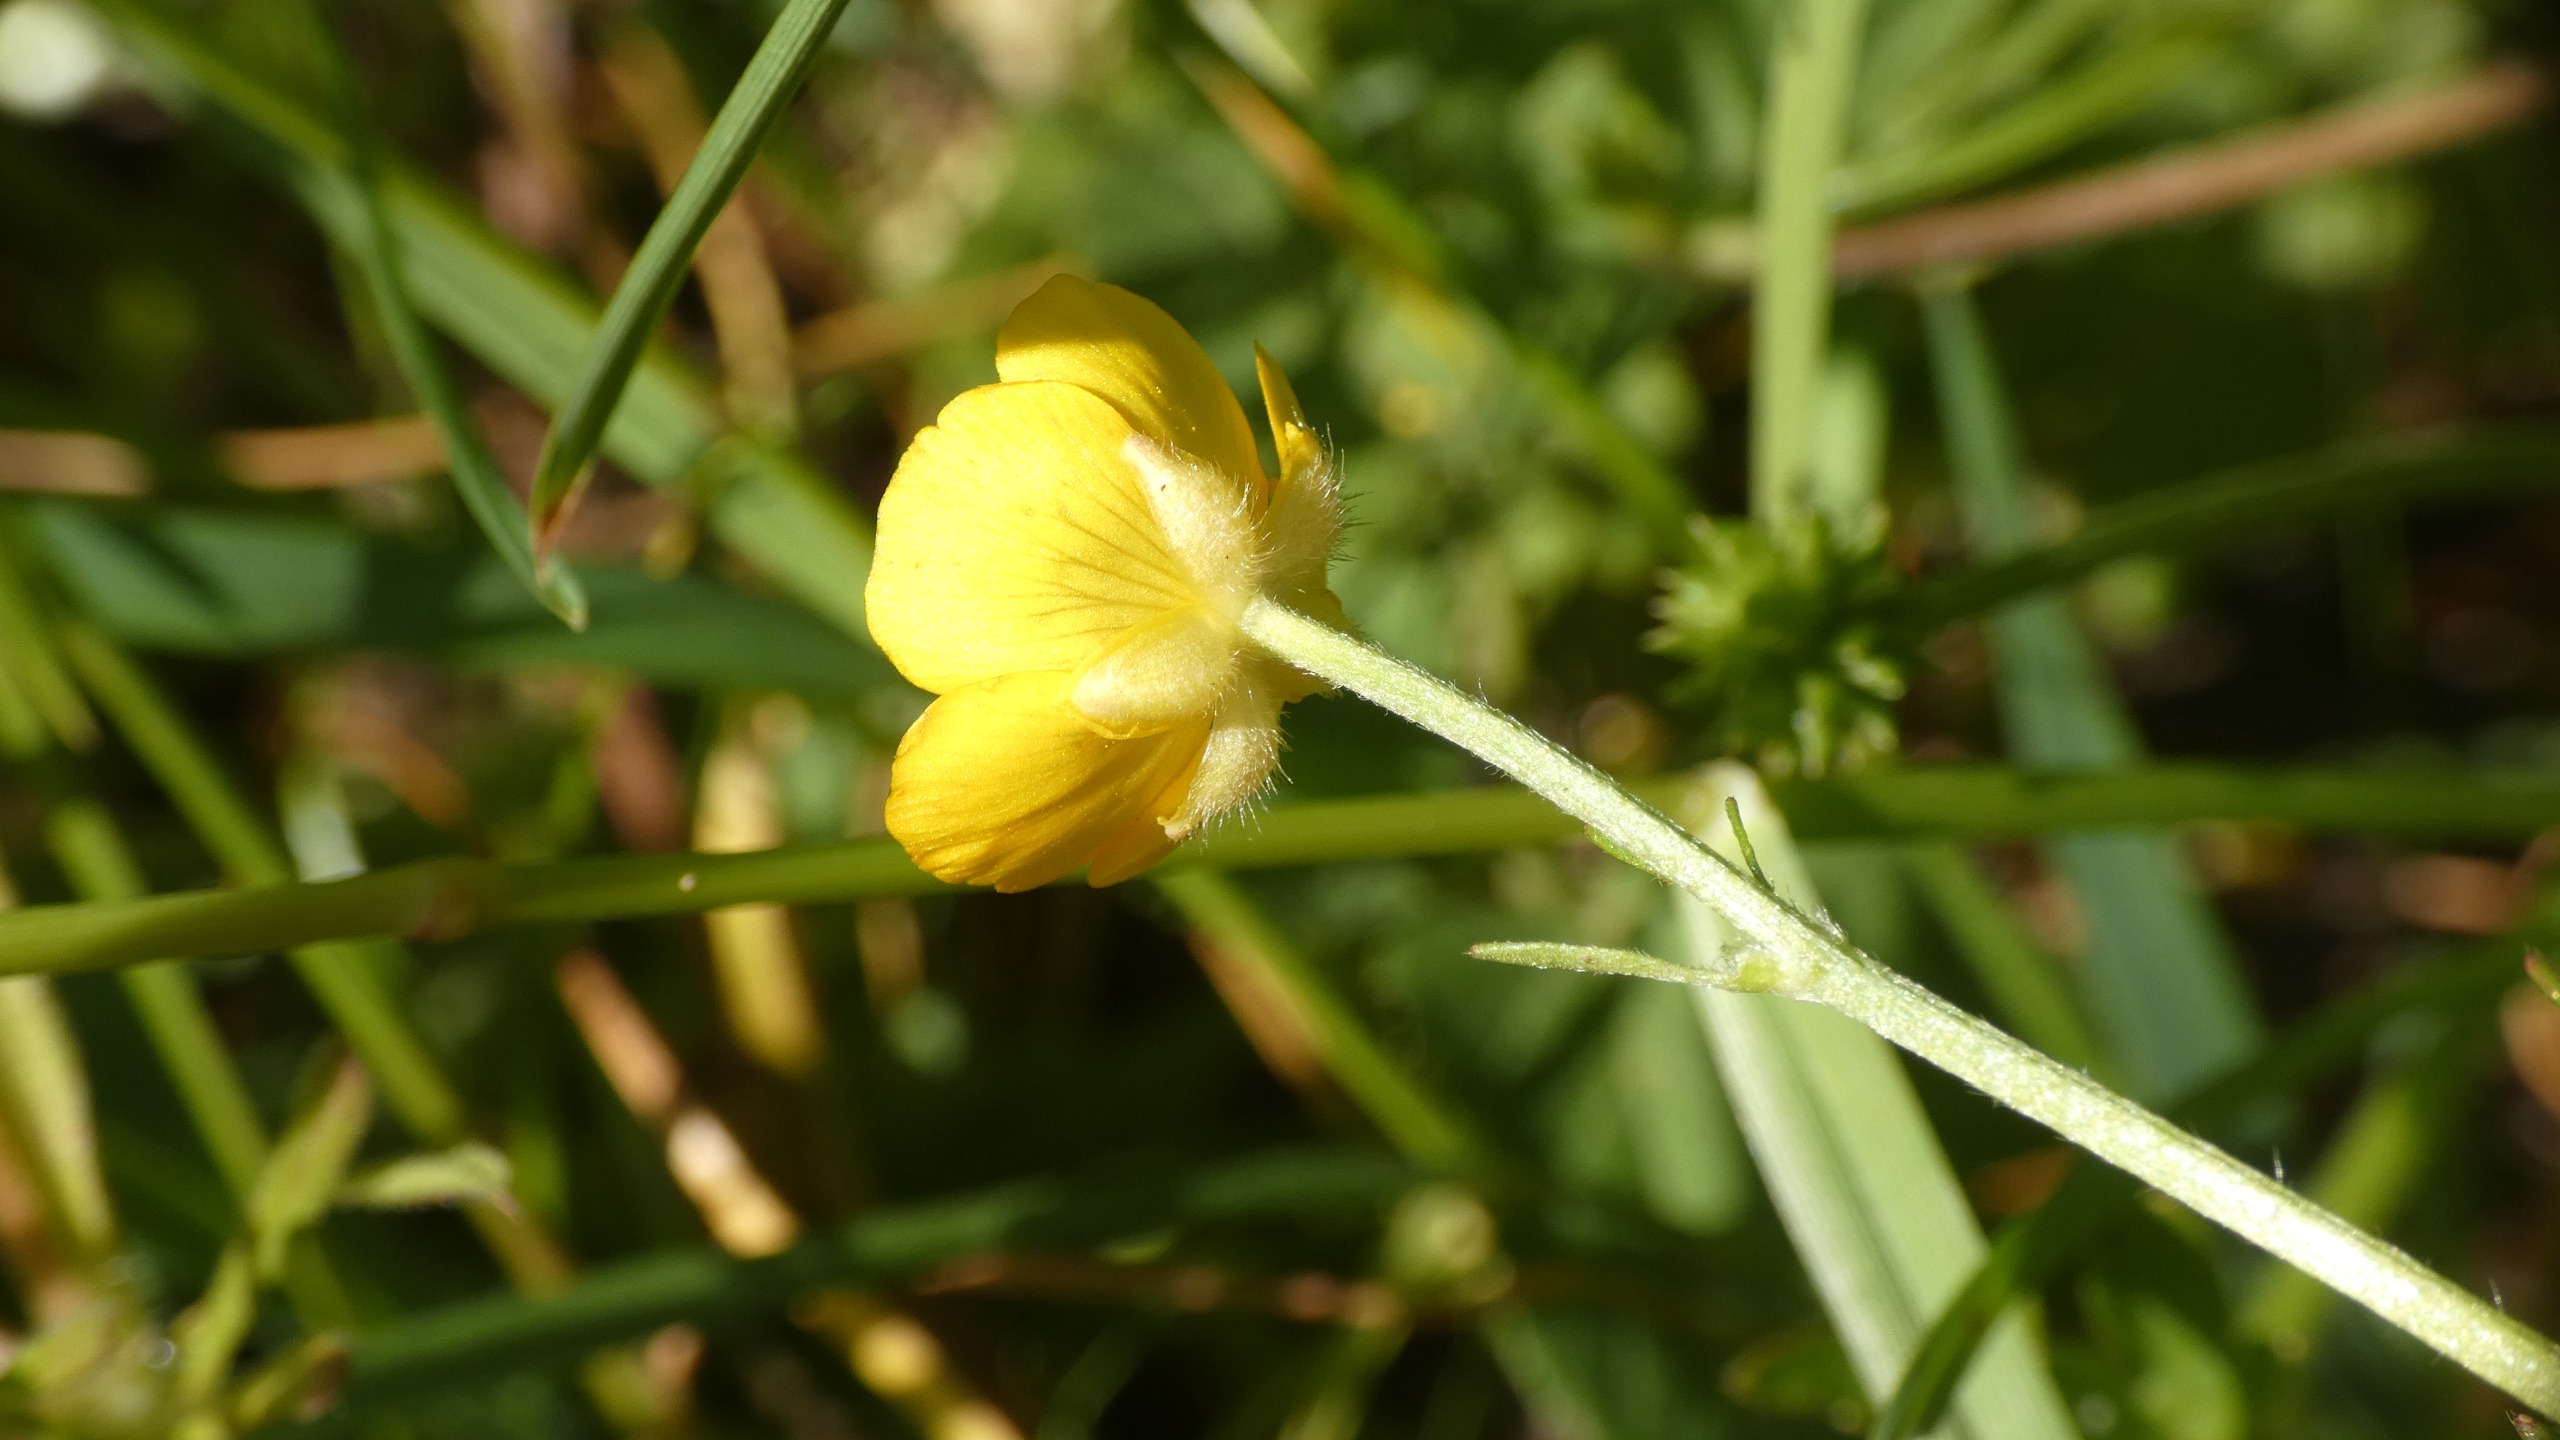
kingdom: Plantae
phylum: Tracheophyta
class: Magnoliopsida
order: Ranunculales
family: Ranunculaceae
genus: Ranunculus
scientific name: Ranunculus repens
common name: Lav ranunkel
